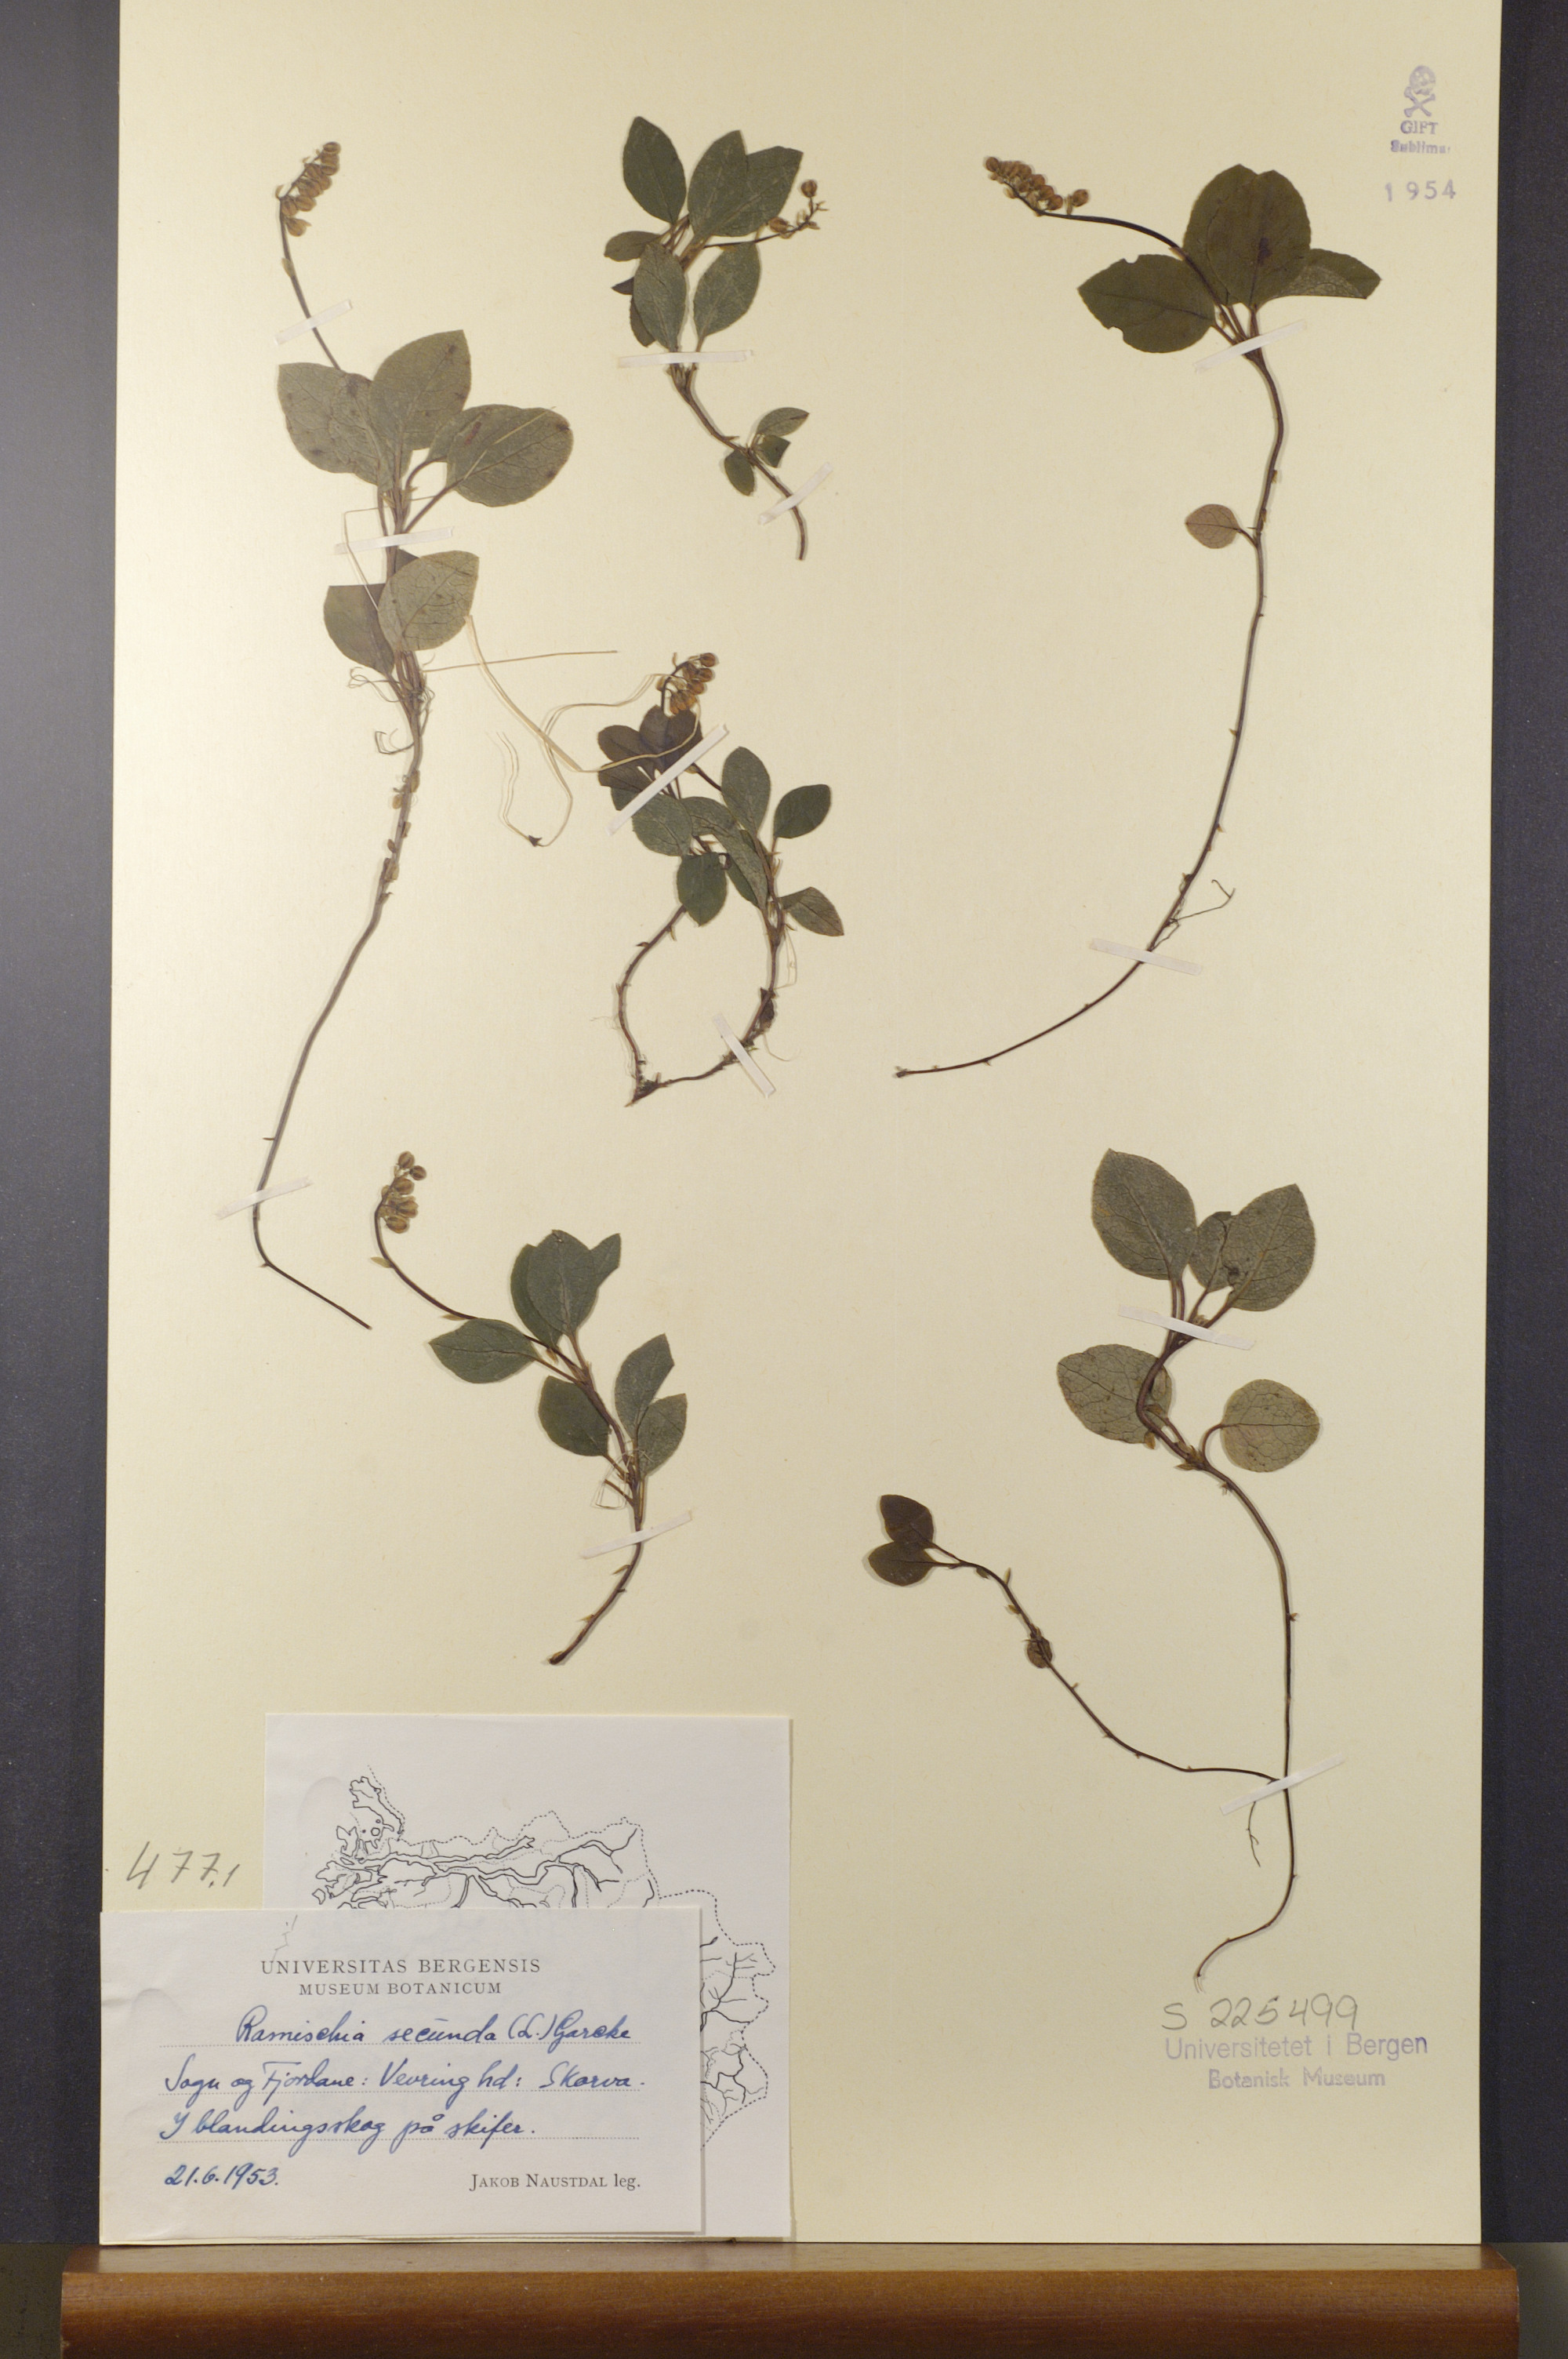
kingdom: Plantae
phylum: Tracheophyta
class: Magnoliopsida
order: Ericales
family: Ericaceae
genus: Orthilia
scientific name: Orthilia secunda
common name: One-sided orthilia
